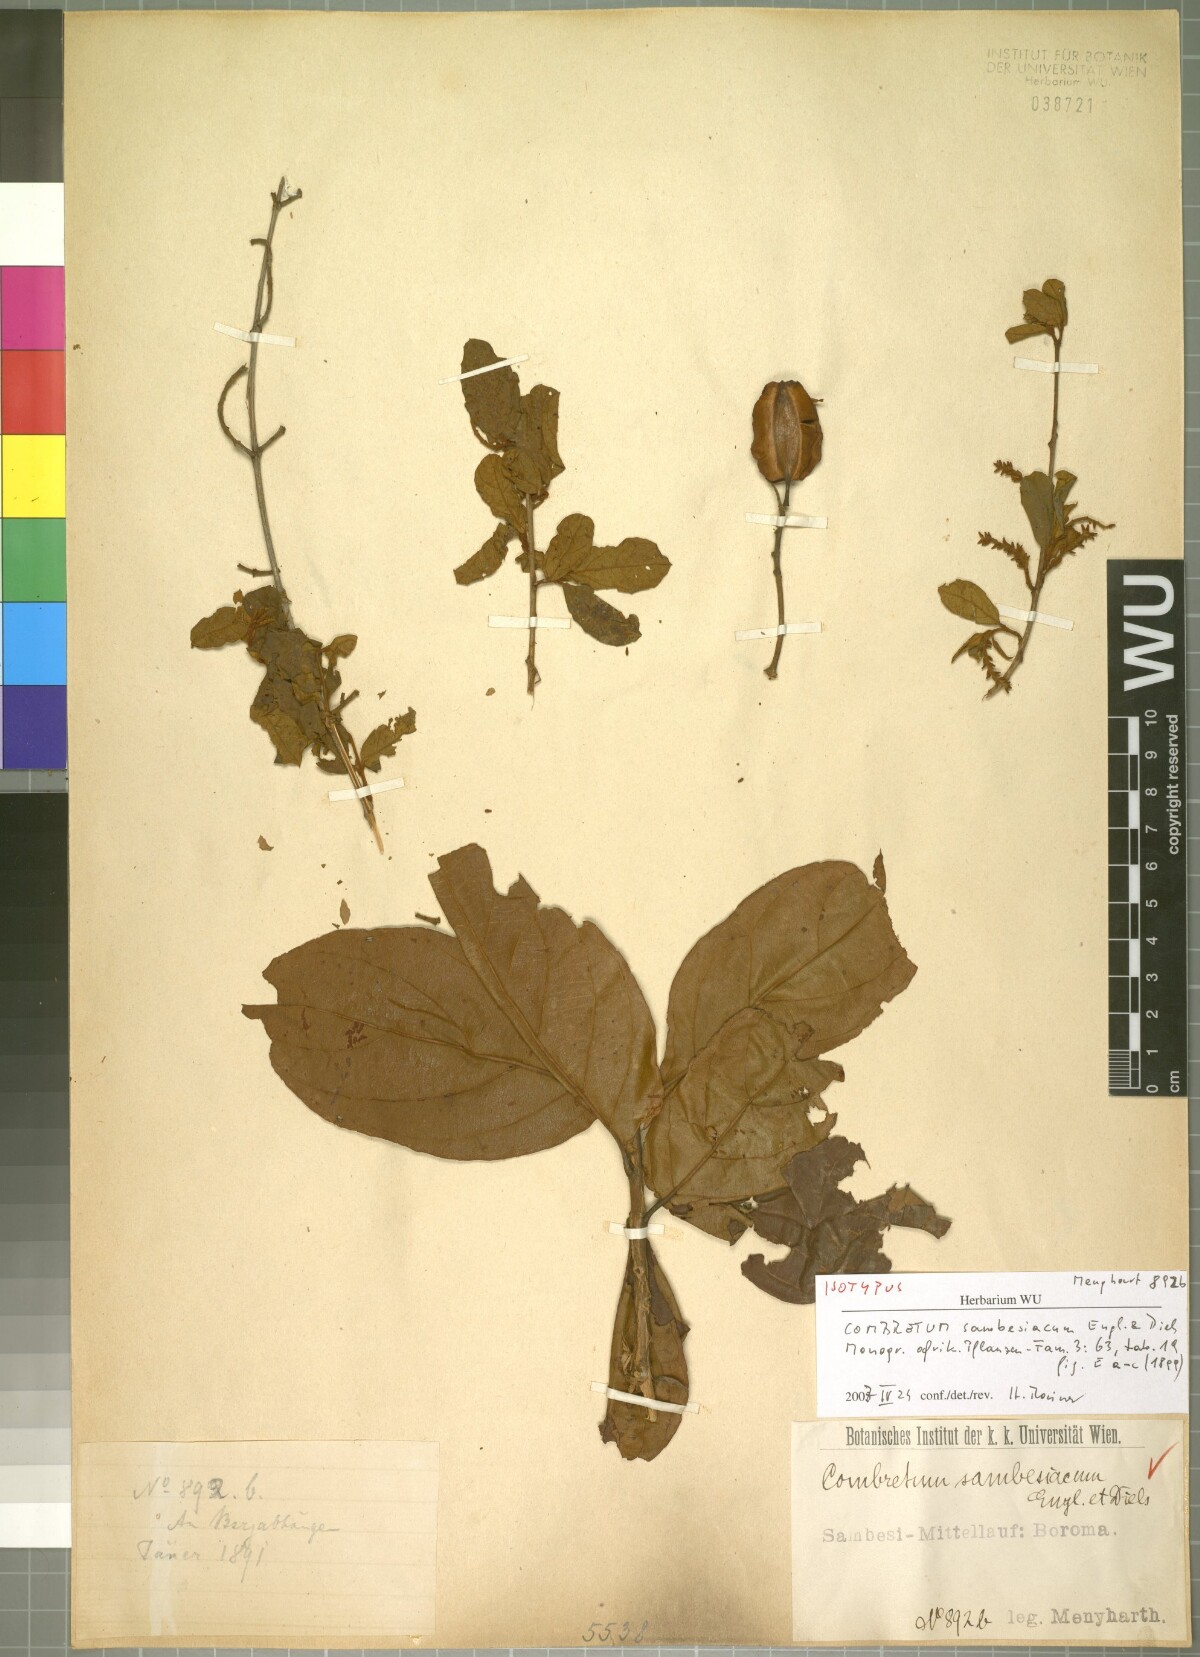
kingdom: Plantae
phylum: Tracheophyta
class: Magnoliopsida
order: Myrtales
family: Combretaceae
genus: Combretum
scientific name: Combretum hereroense
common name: Russet bushwillow
